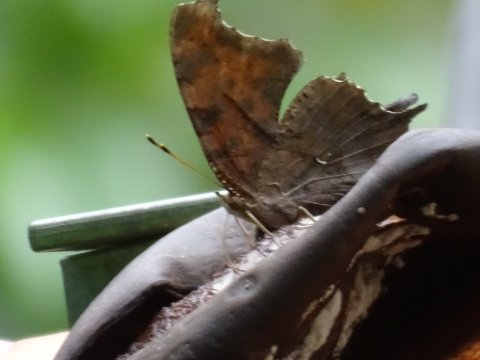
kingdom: Animalia
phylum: Arthropoda
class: Insecta
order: Lepidoptera
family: Nymphalidae
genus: Polygonia
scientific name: Polygonia interrogationis
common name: Question Mark
